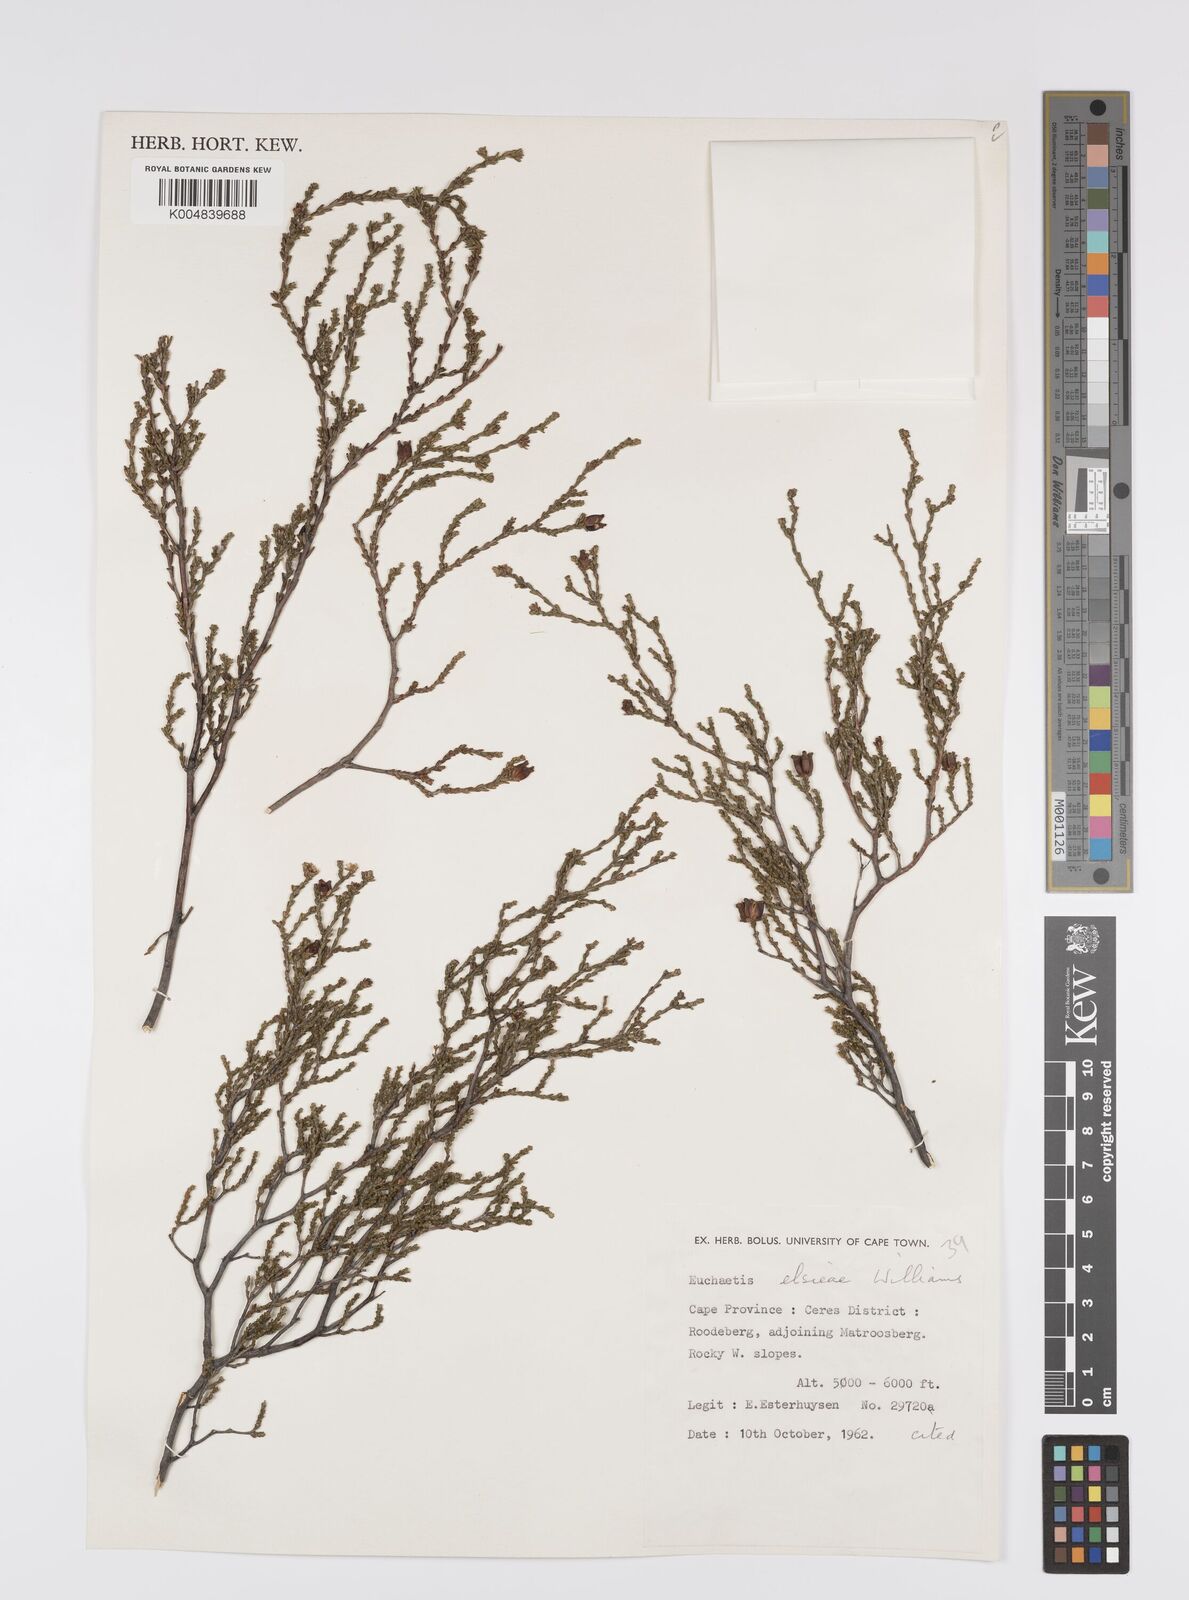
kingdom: Plantae
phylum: Tracheophyta
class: Magnoliopsida
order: Sapindales
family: Rutaceae
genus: Euchaetis
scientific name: Euchaetis elsieae
